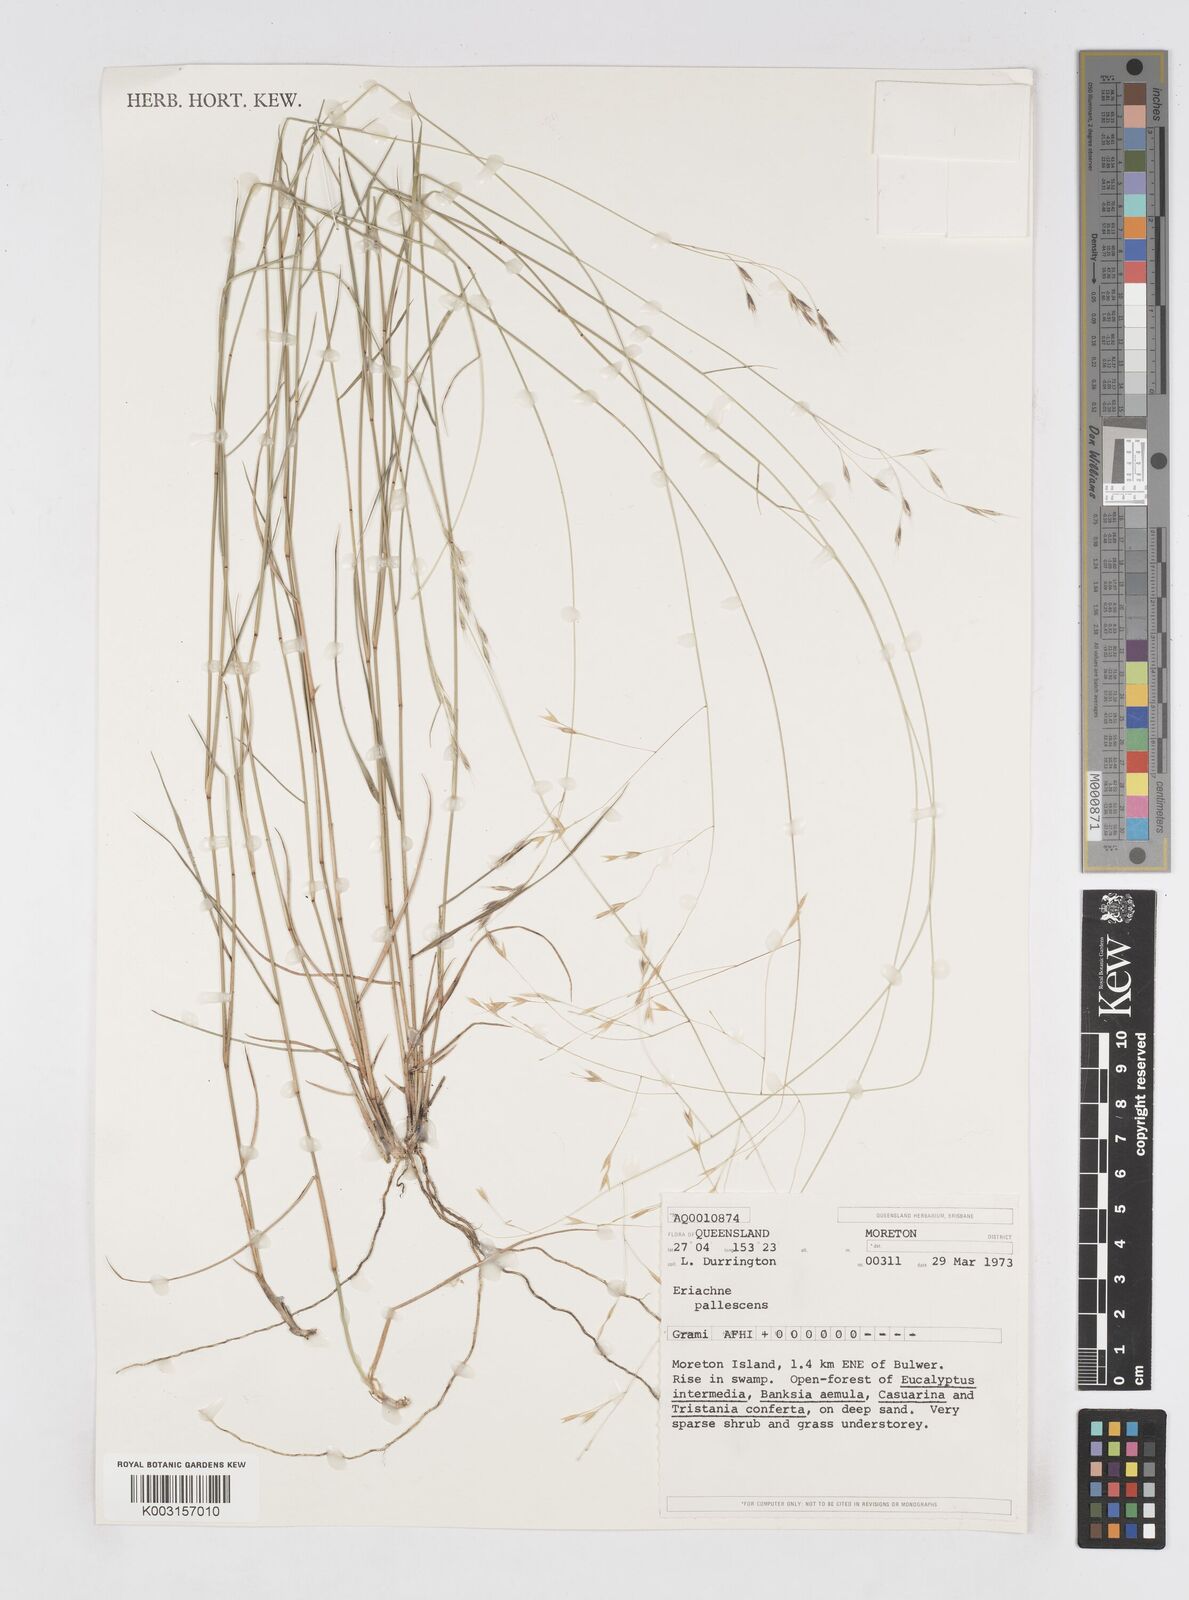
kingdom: Plantae
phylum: Tracheophyta
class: Liliopsida
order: Poales
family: Poaceae
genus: Eriachne
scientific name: Eriachne pallescens
